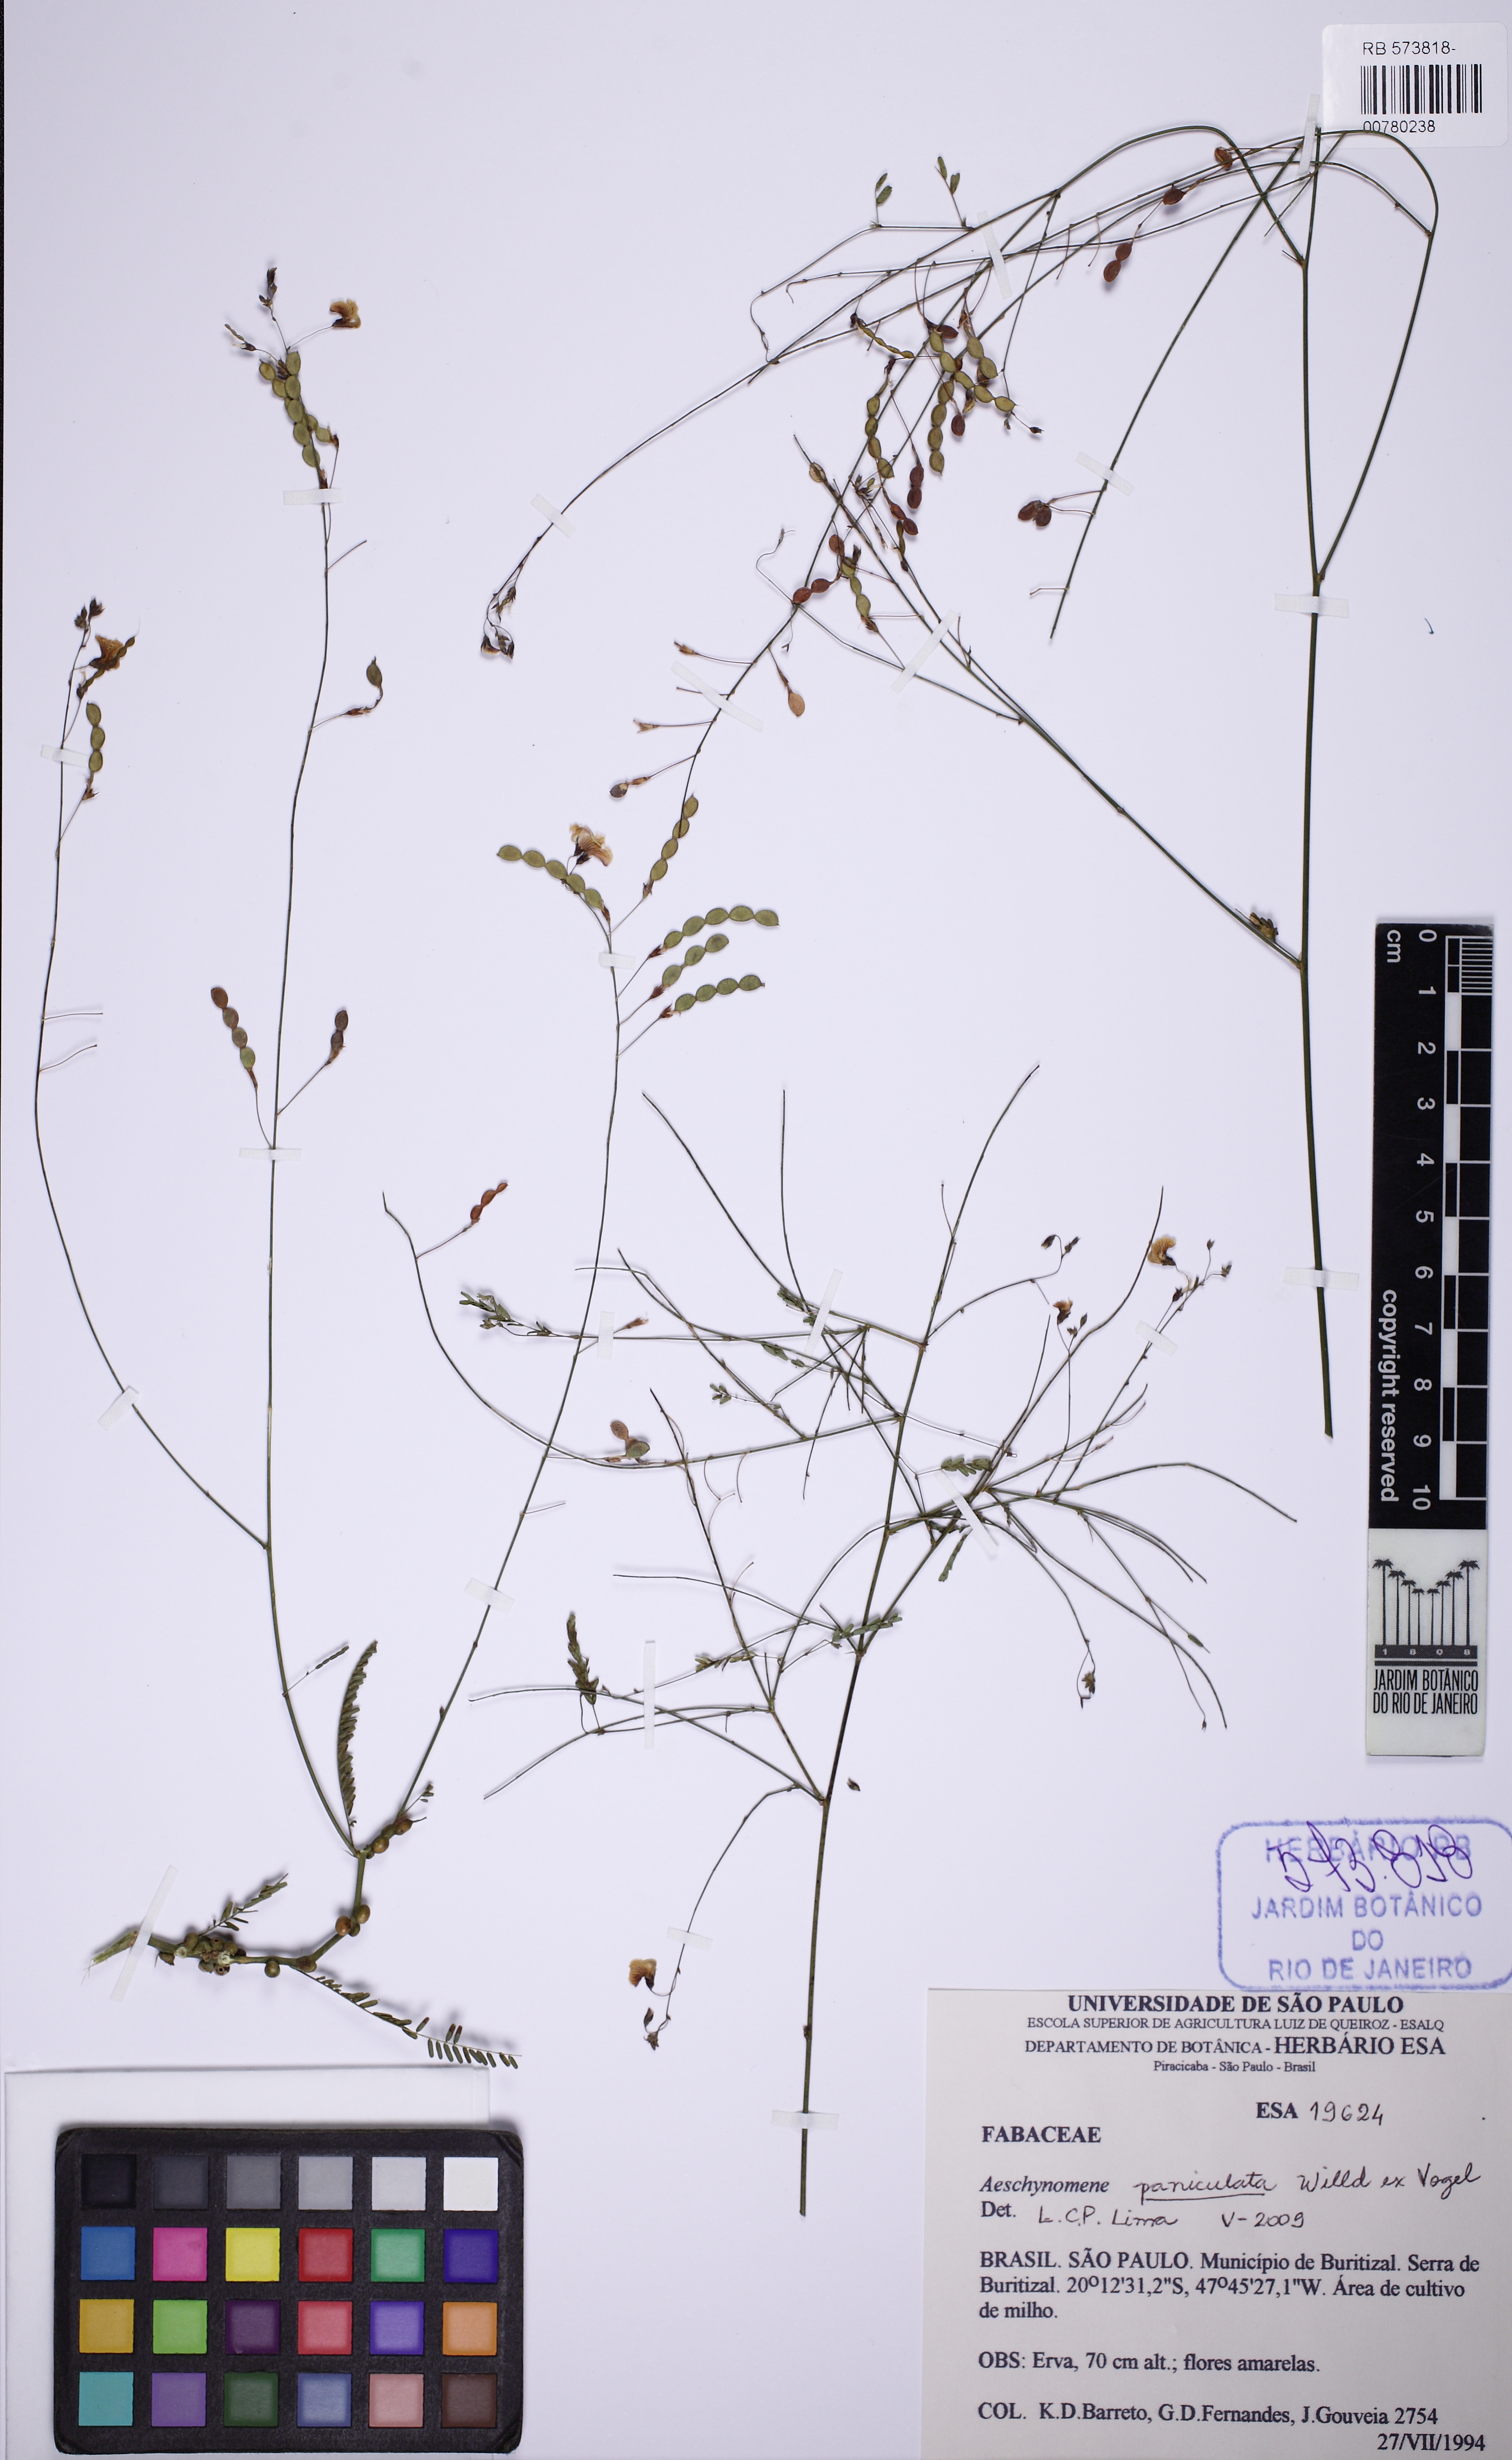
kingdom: Plantae
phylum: Tracheophyta
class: Magnoliopsida
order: Fabales
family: Fabaceae
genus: Ctenodon
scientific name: Ctenodon paniculatus
